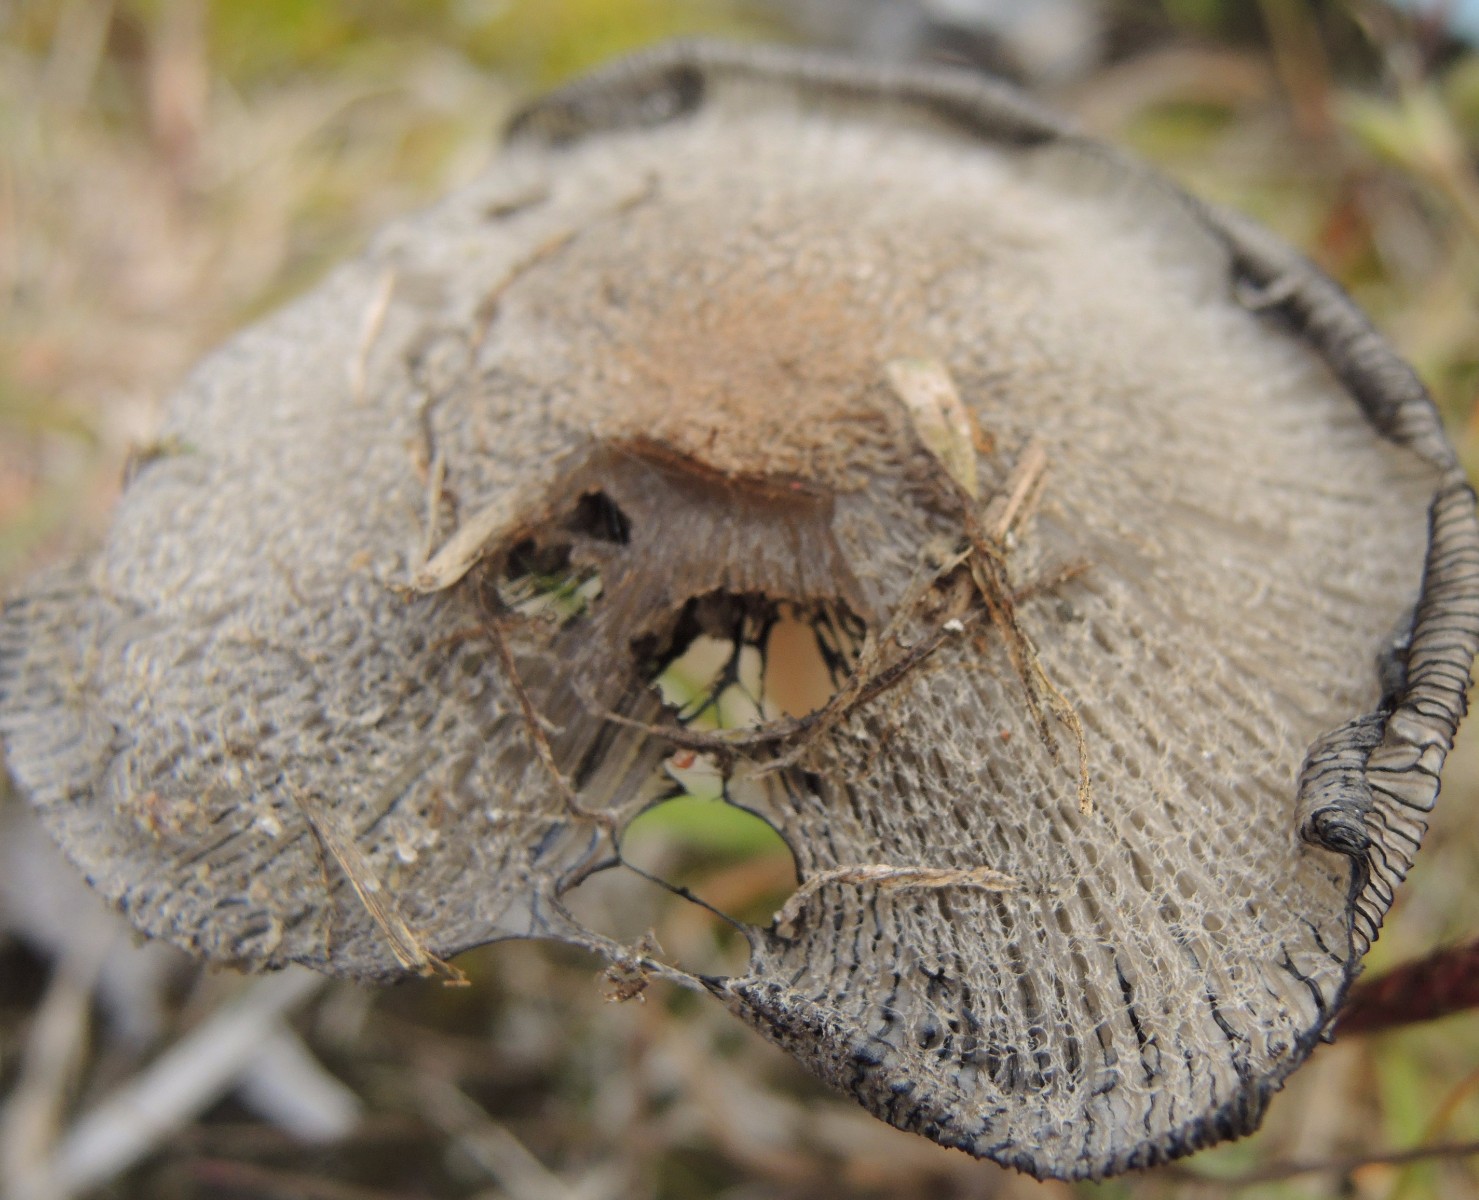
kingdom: Fungi
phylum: Basidiomycota
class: Agaricomycetes
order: Agaricales
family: Psathyrellaceae
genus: Coprinopsis
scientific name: Coprinopsis jonesii
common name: spættet blækhat
